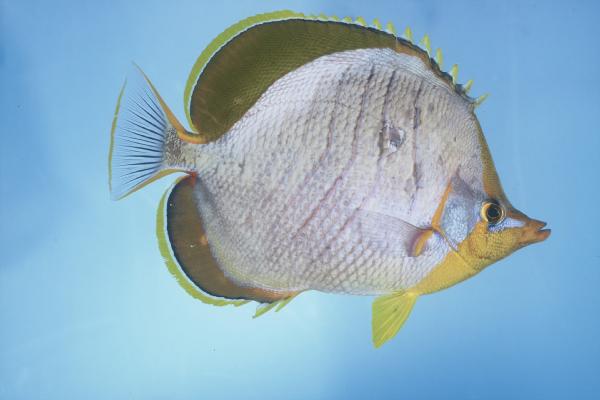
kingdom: Animalia
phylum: Chordata
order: Perciformes
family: Chaetodontidae
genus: Chaetodon
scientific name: Chaetodon xanthocephalus
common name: Yellowhead butterflyfish
